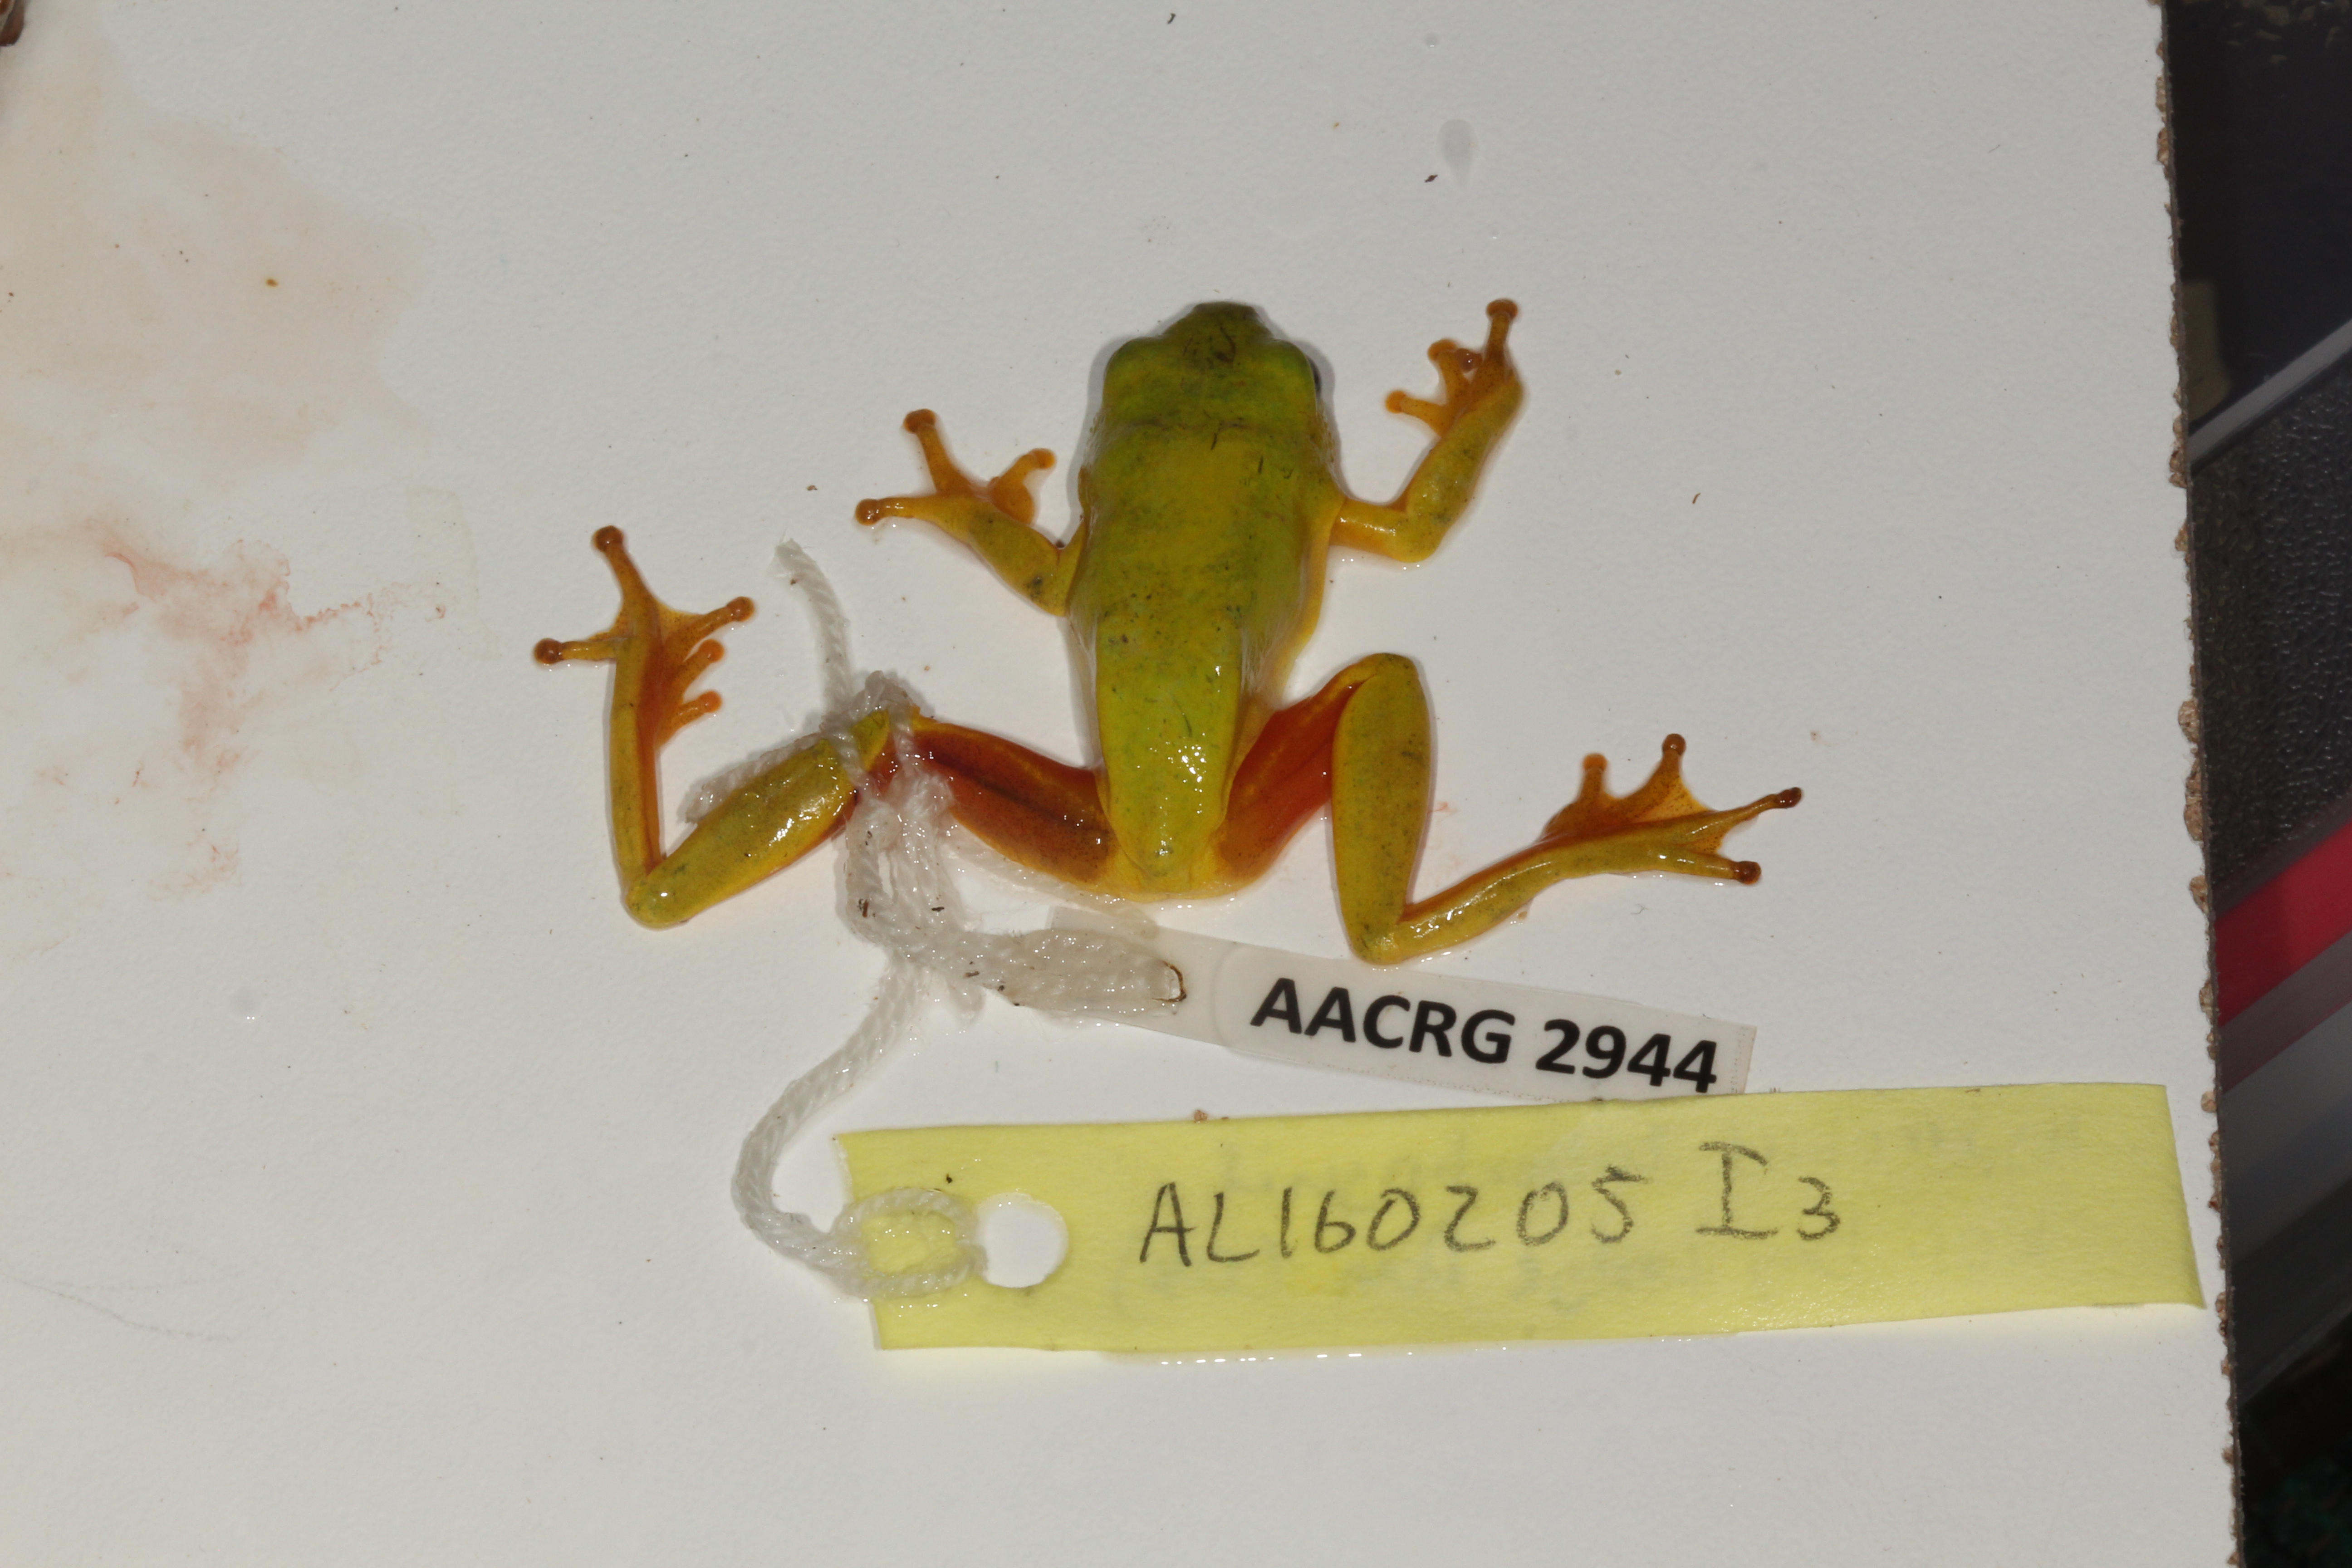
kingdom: Animalia
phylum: Chordata
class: Amphibia
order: Anura
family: Hyperoliidae
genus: Hyperolius
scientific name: Hyperolius tuberilinguis
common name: Tinker reed frog
